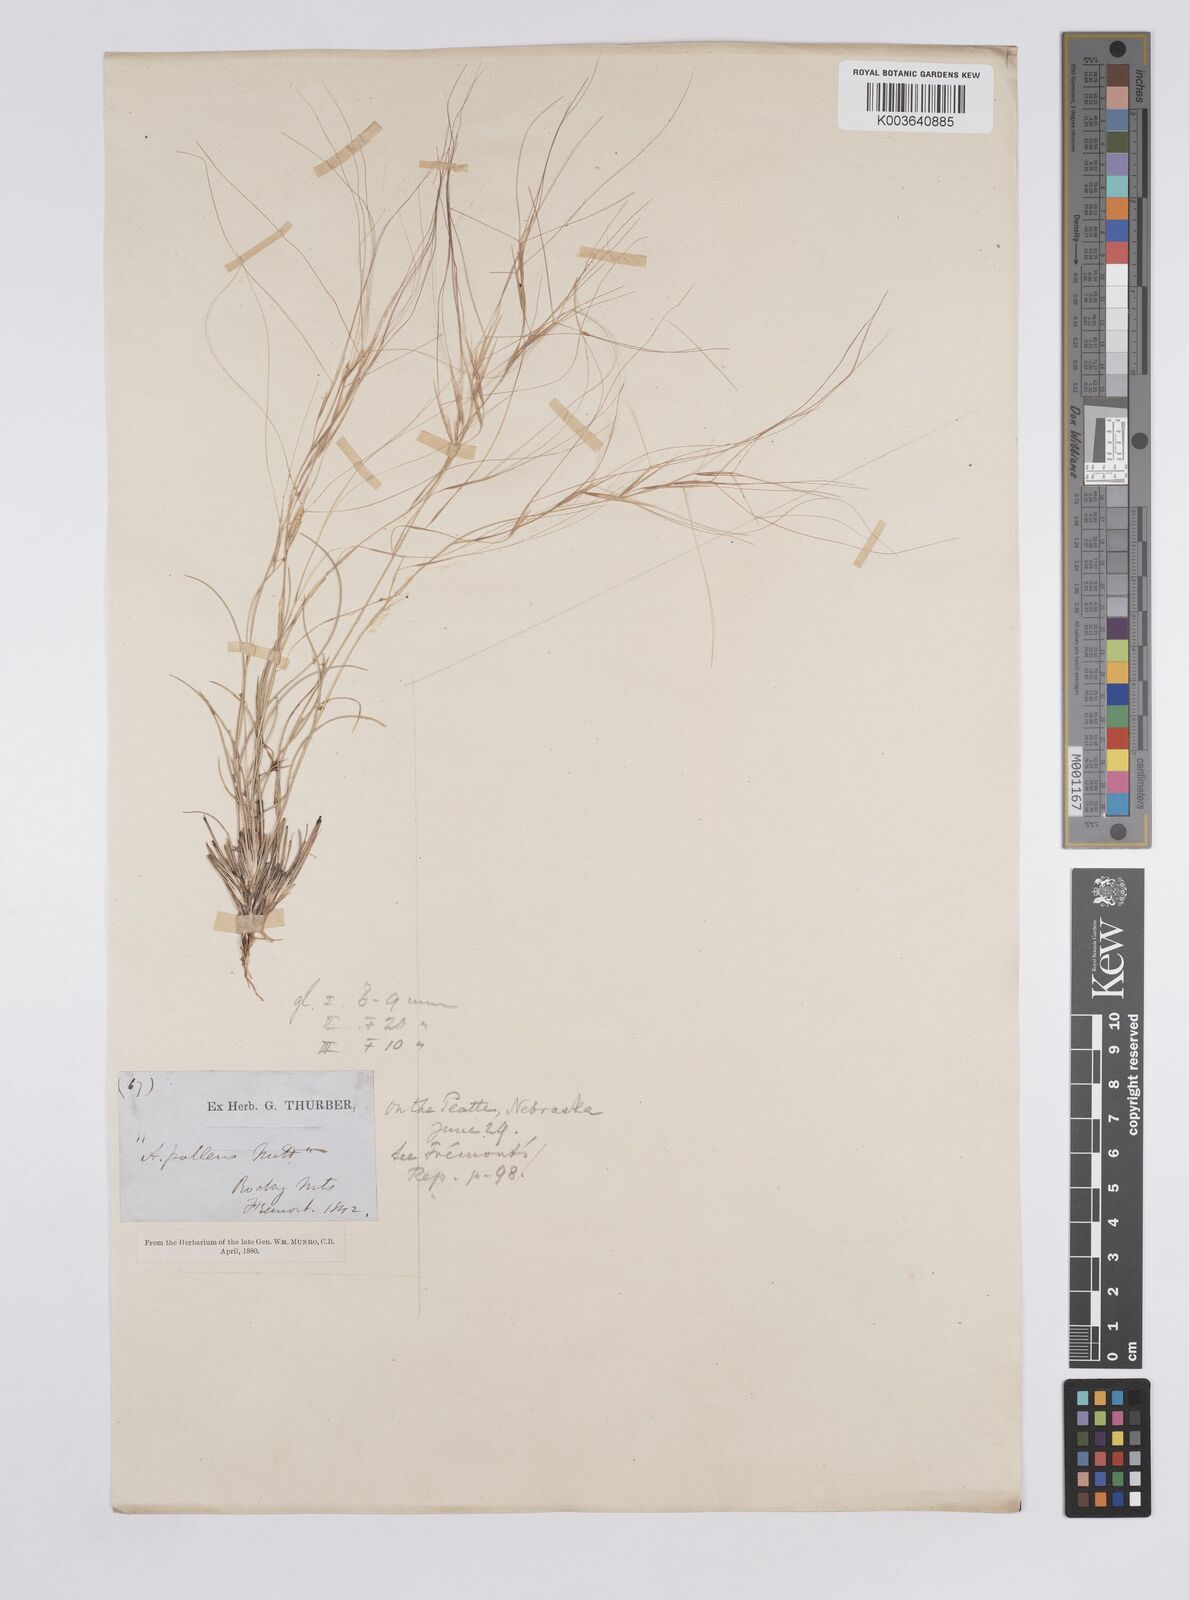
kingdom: Plantae
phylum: Tracheophyta
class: Liliopsida
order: Poales
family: Poaceae
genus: Aristida
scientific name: Aristida purpurea
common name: Purple threeawn
